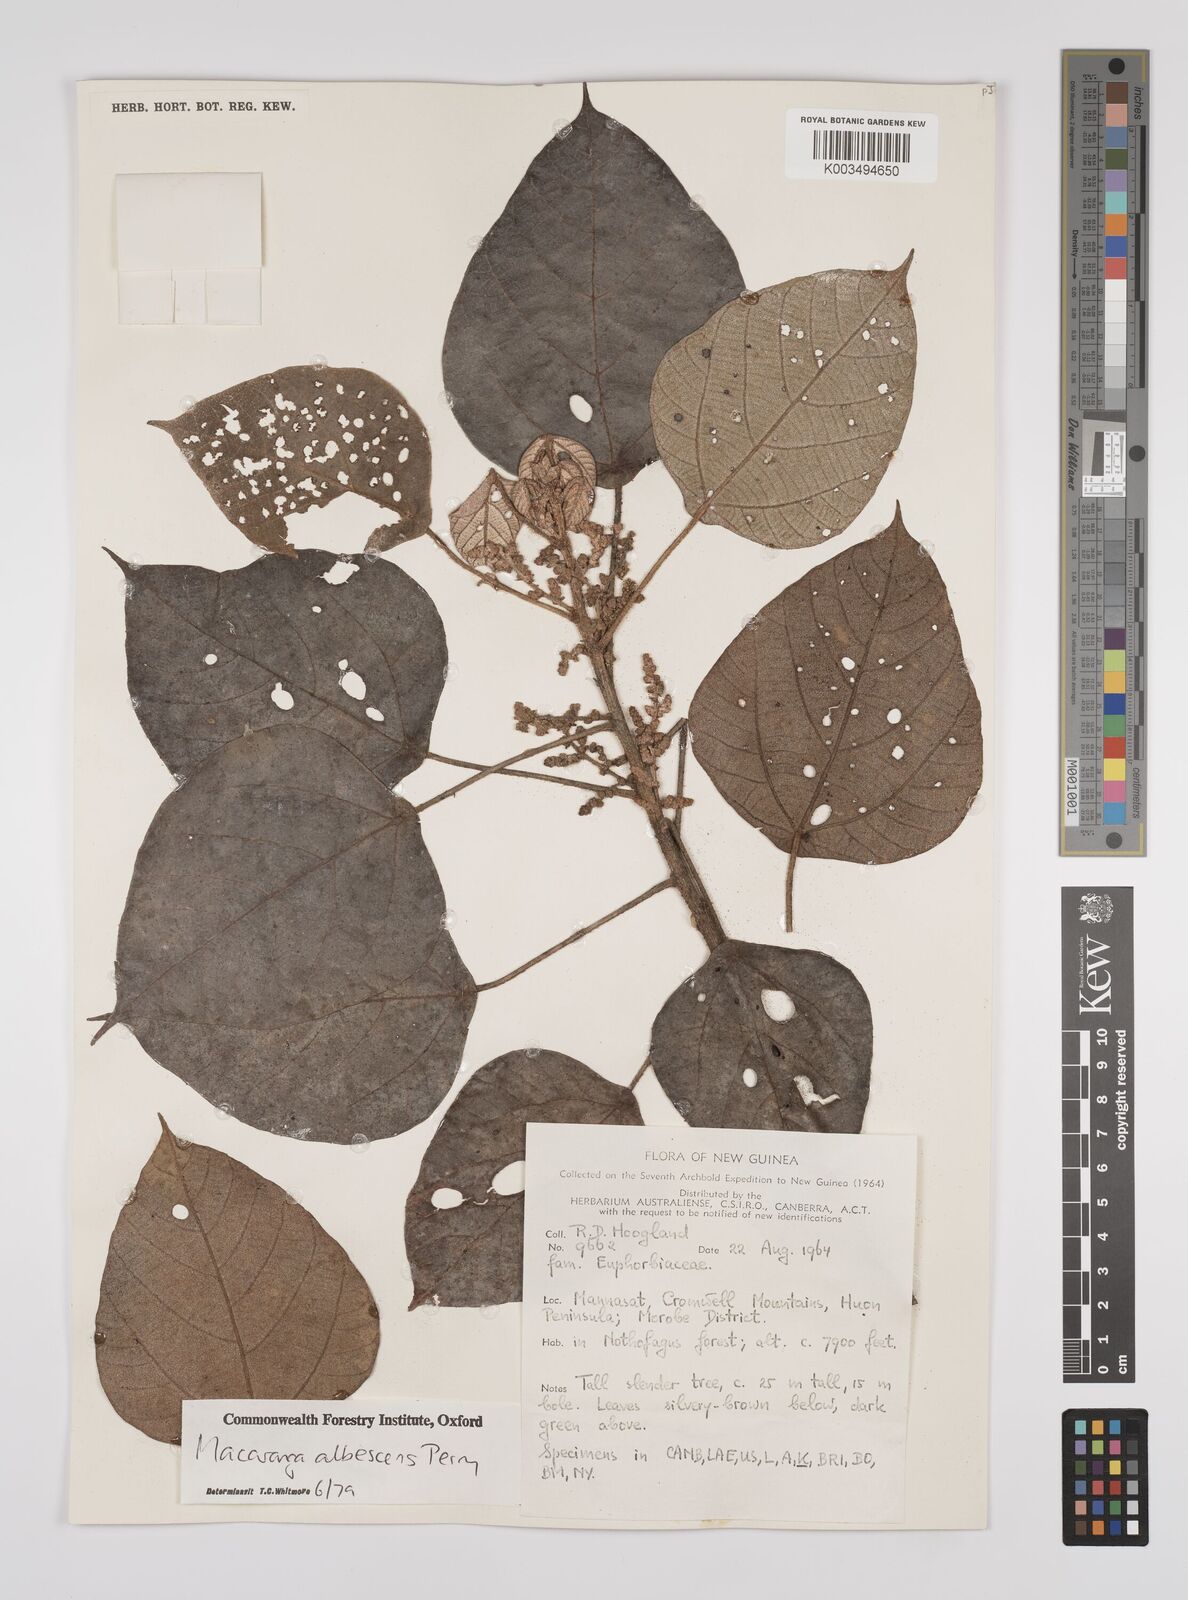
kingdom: Plantae
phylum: Tracheophyta
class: Magnoliopsida
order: Malpighiales
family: Euphorbiaceae
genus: Macaranga
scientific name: Macaranga albescens
